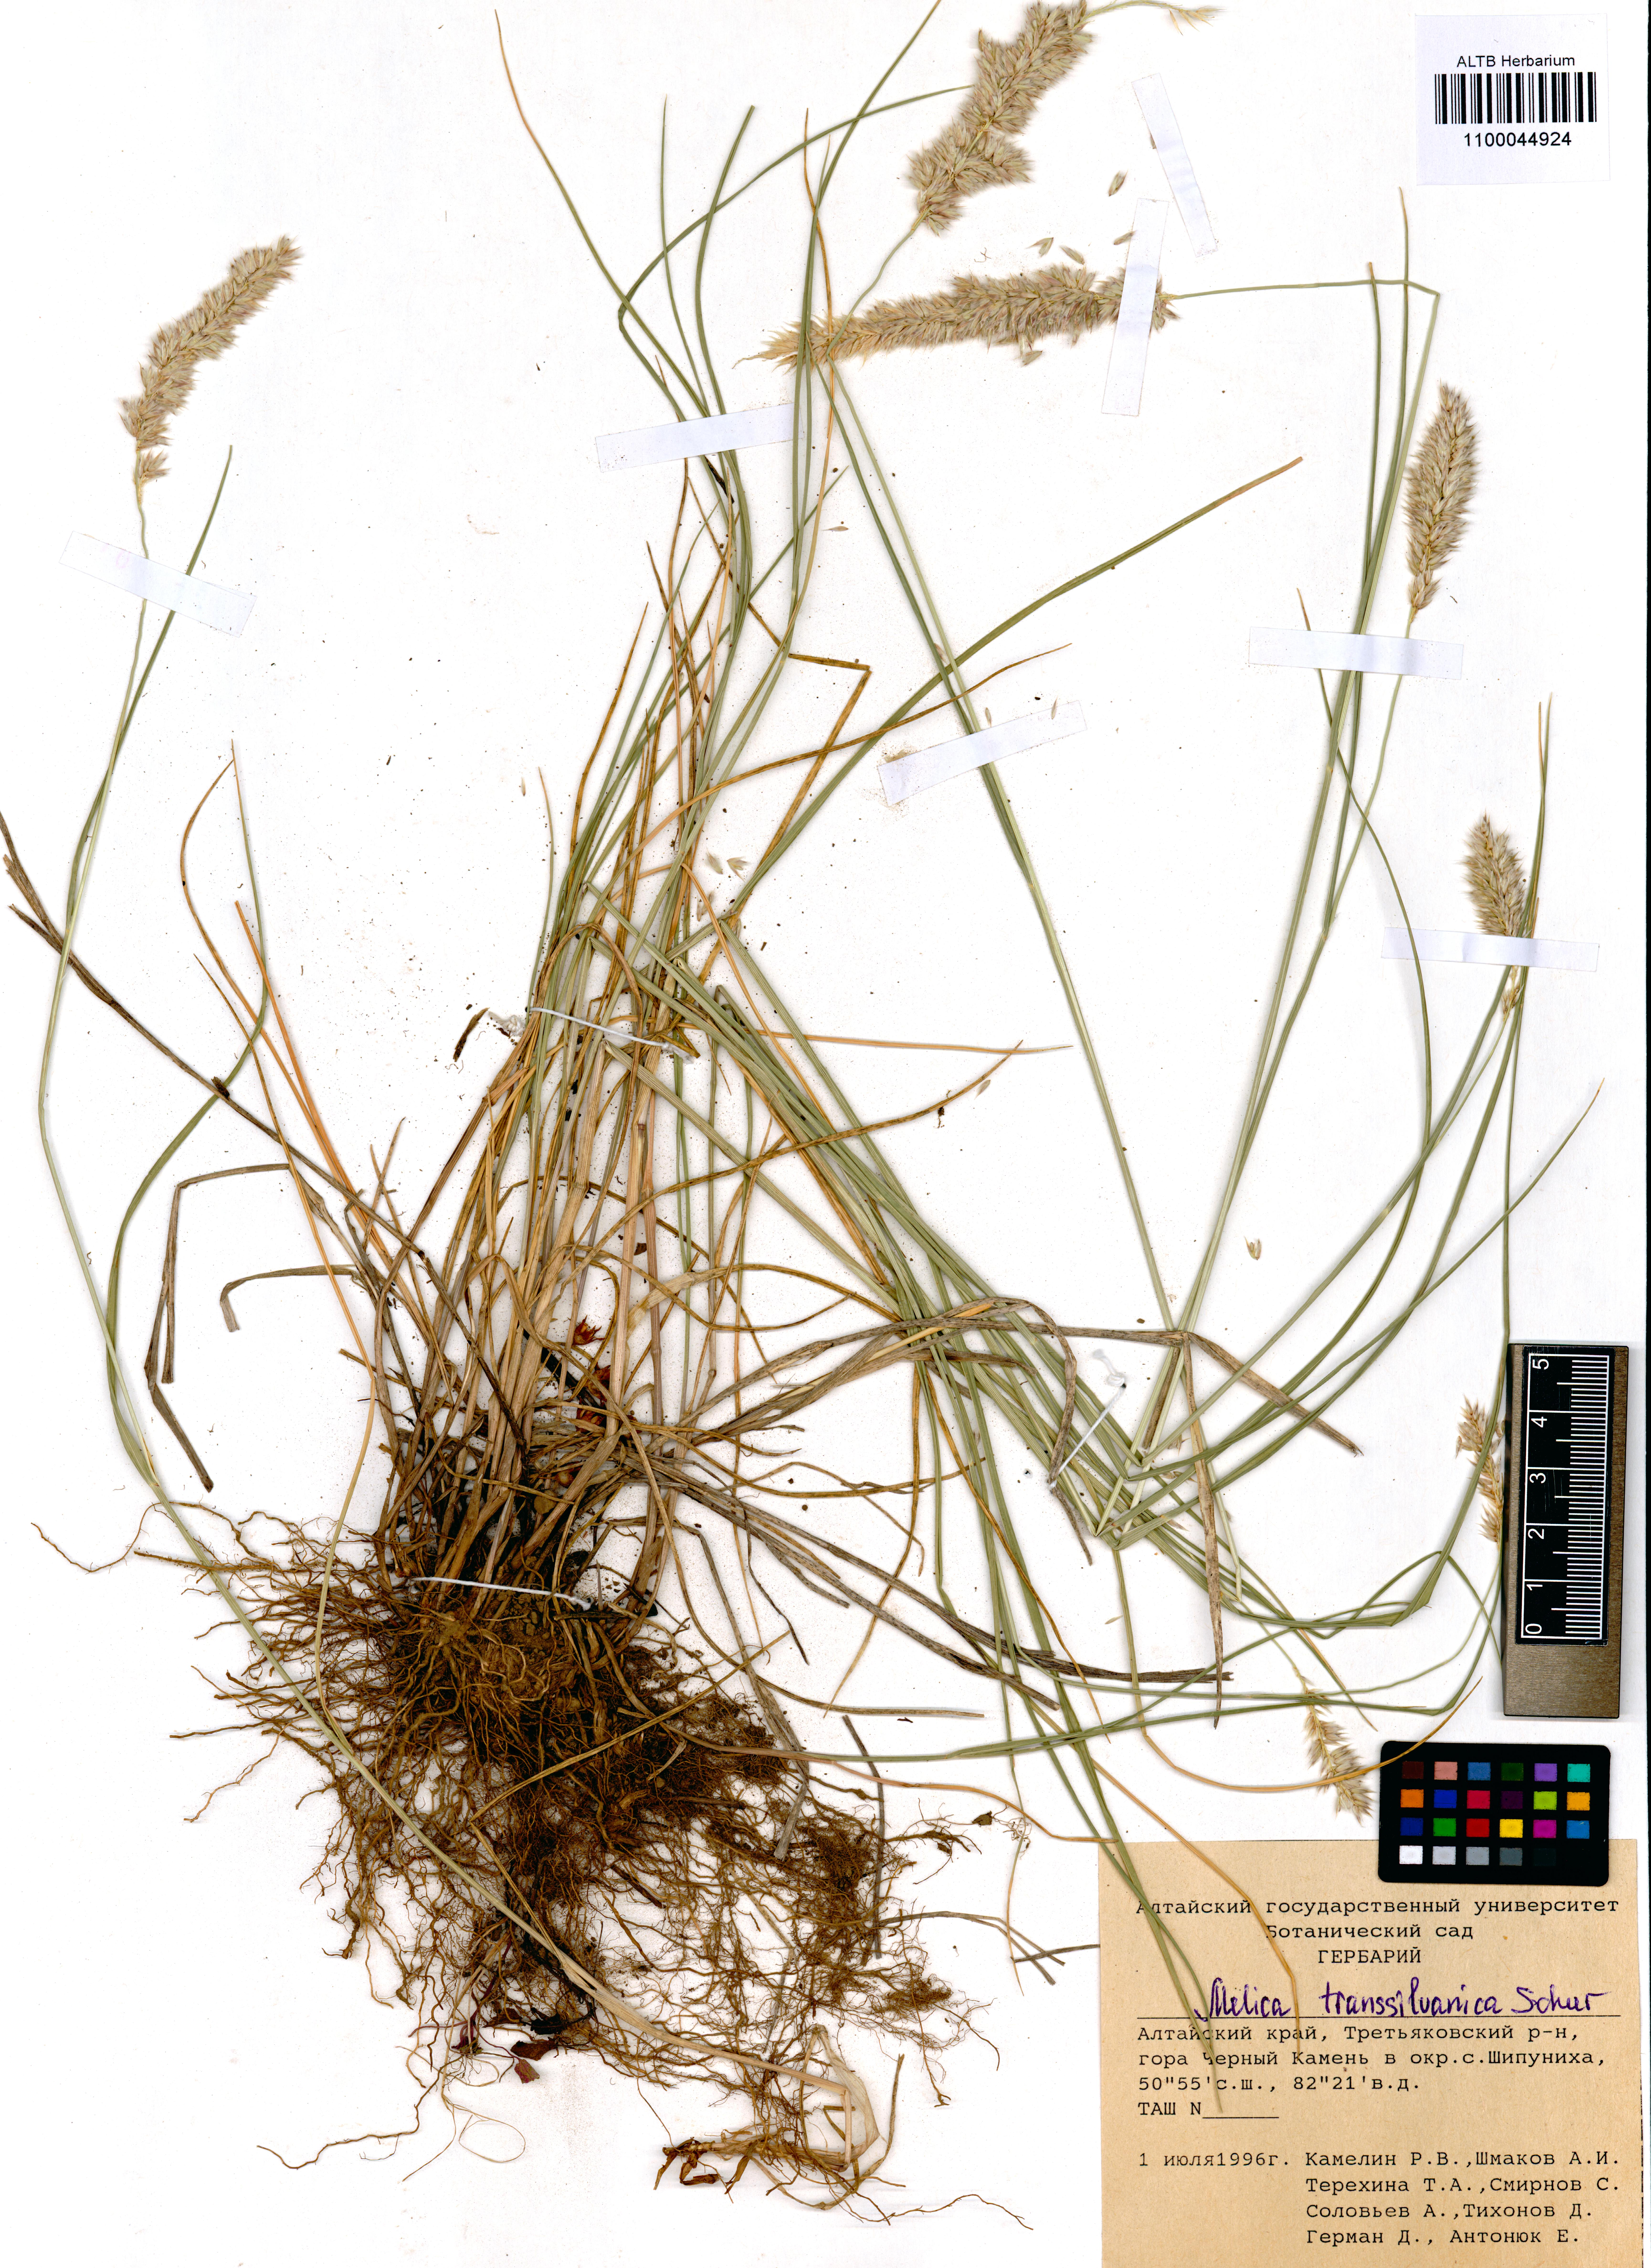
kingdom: Plantae
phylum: Tracheophyta
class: Liliopsida
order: Poales
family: Poaceae
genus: Melica
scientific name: Melica transsilvanica
